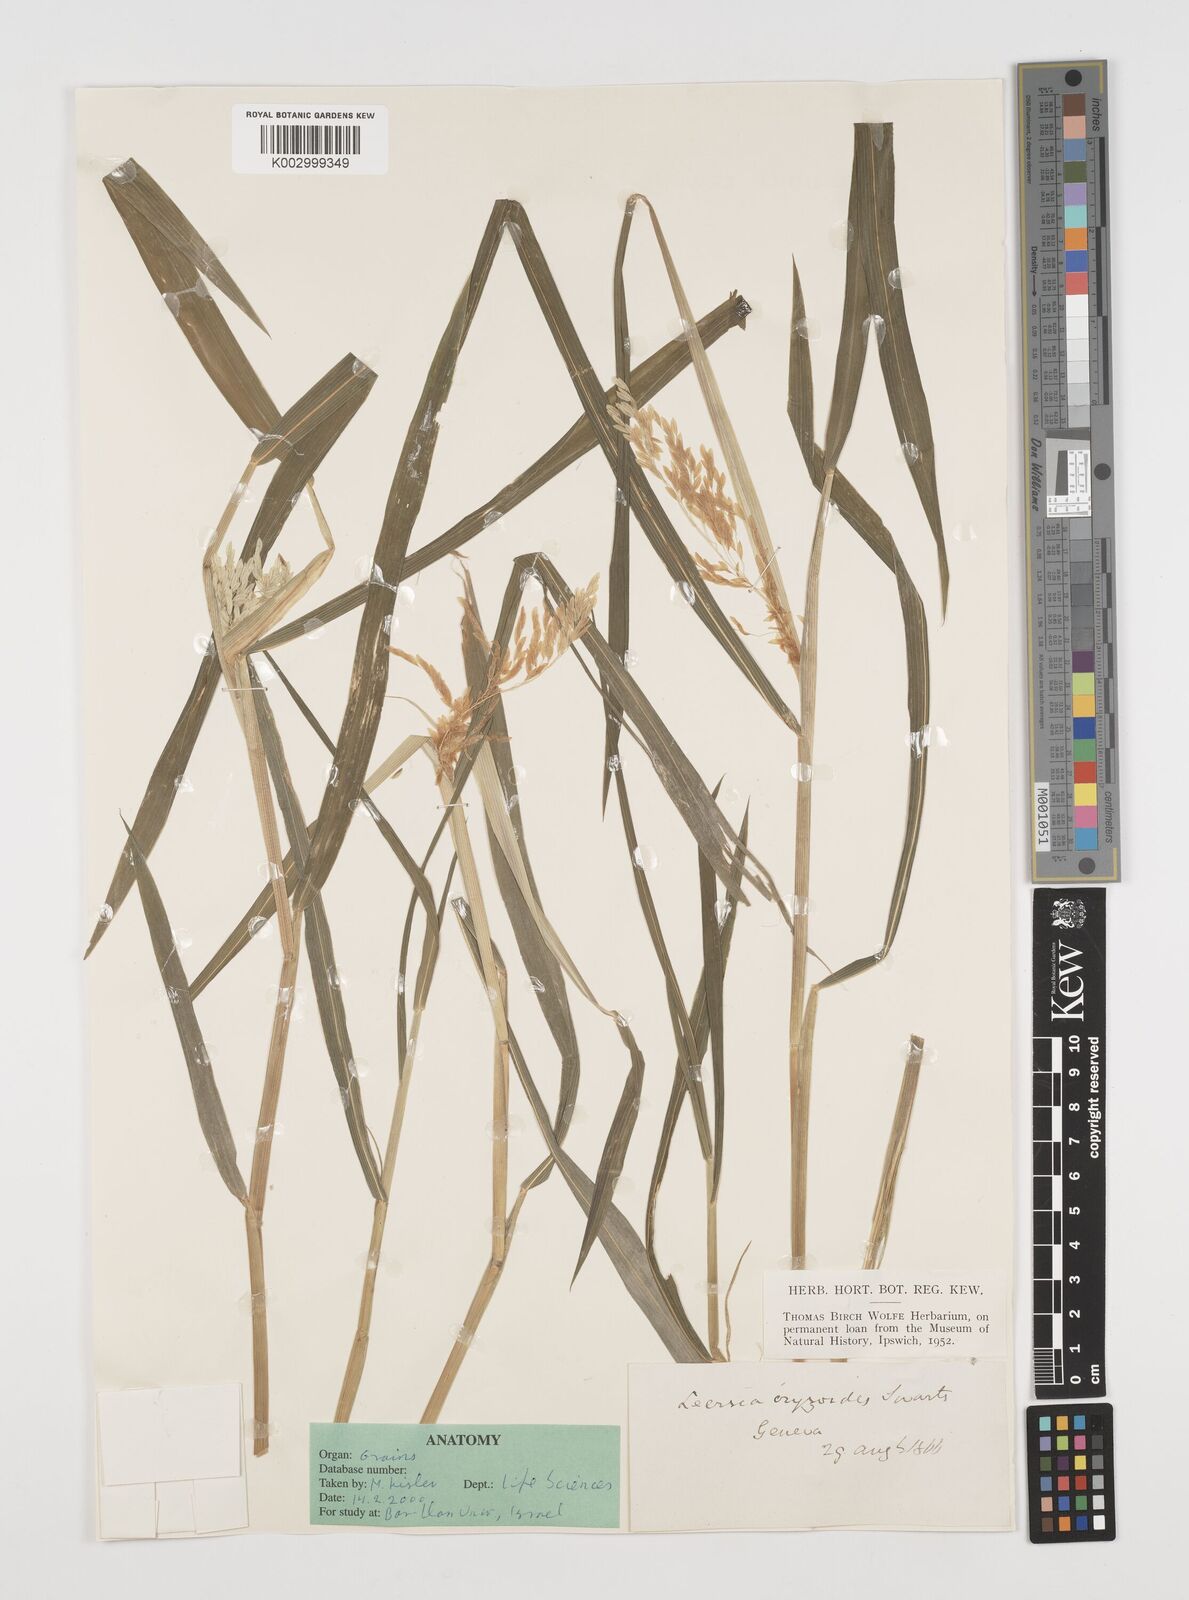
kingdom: Plantae
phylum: Tracheophyta
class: Liliopsida
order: Poales
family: Poaceae
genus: Leersia
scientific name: Leersia oryzoides
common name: Cut-grass
